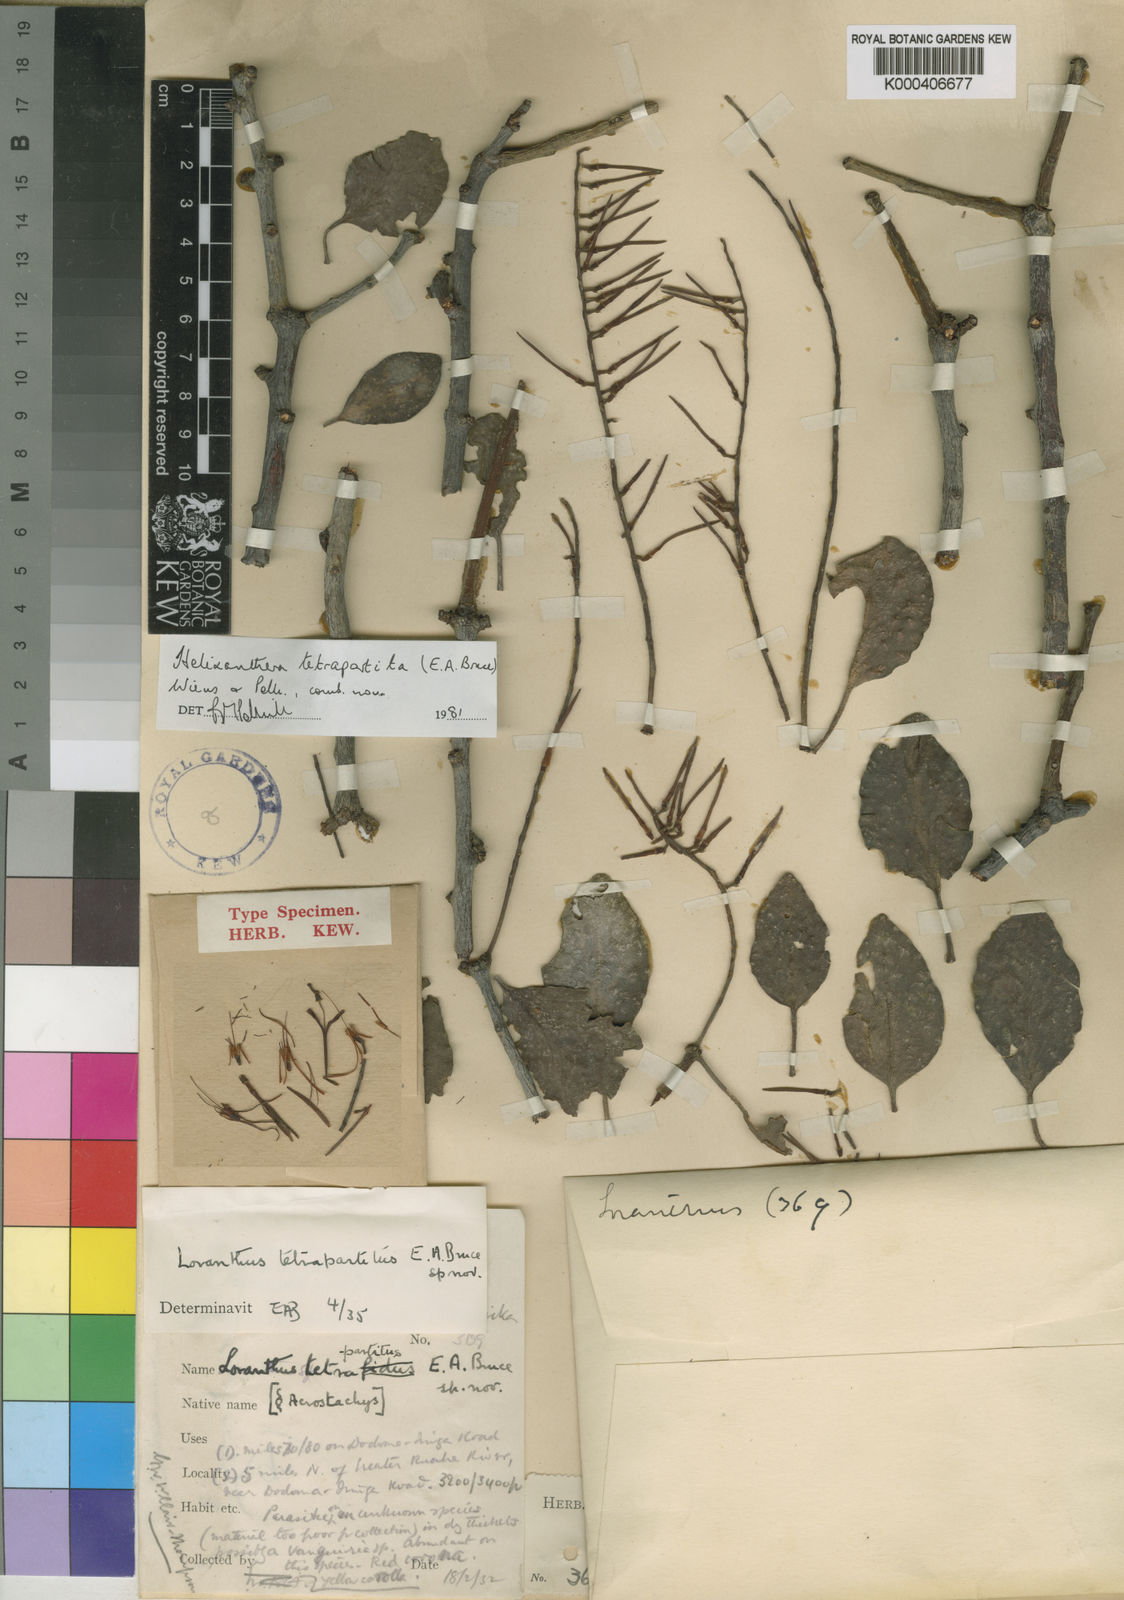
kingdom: Plantae
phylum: Tracheophyta
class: Magnoliopsida
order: Santalales
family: Loranthaceae
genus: Helixanthera
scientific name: Helixanthera tetrapartita
